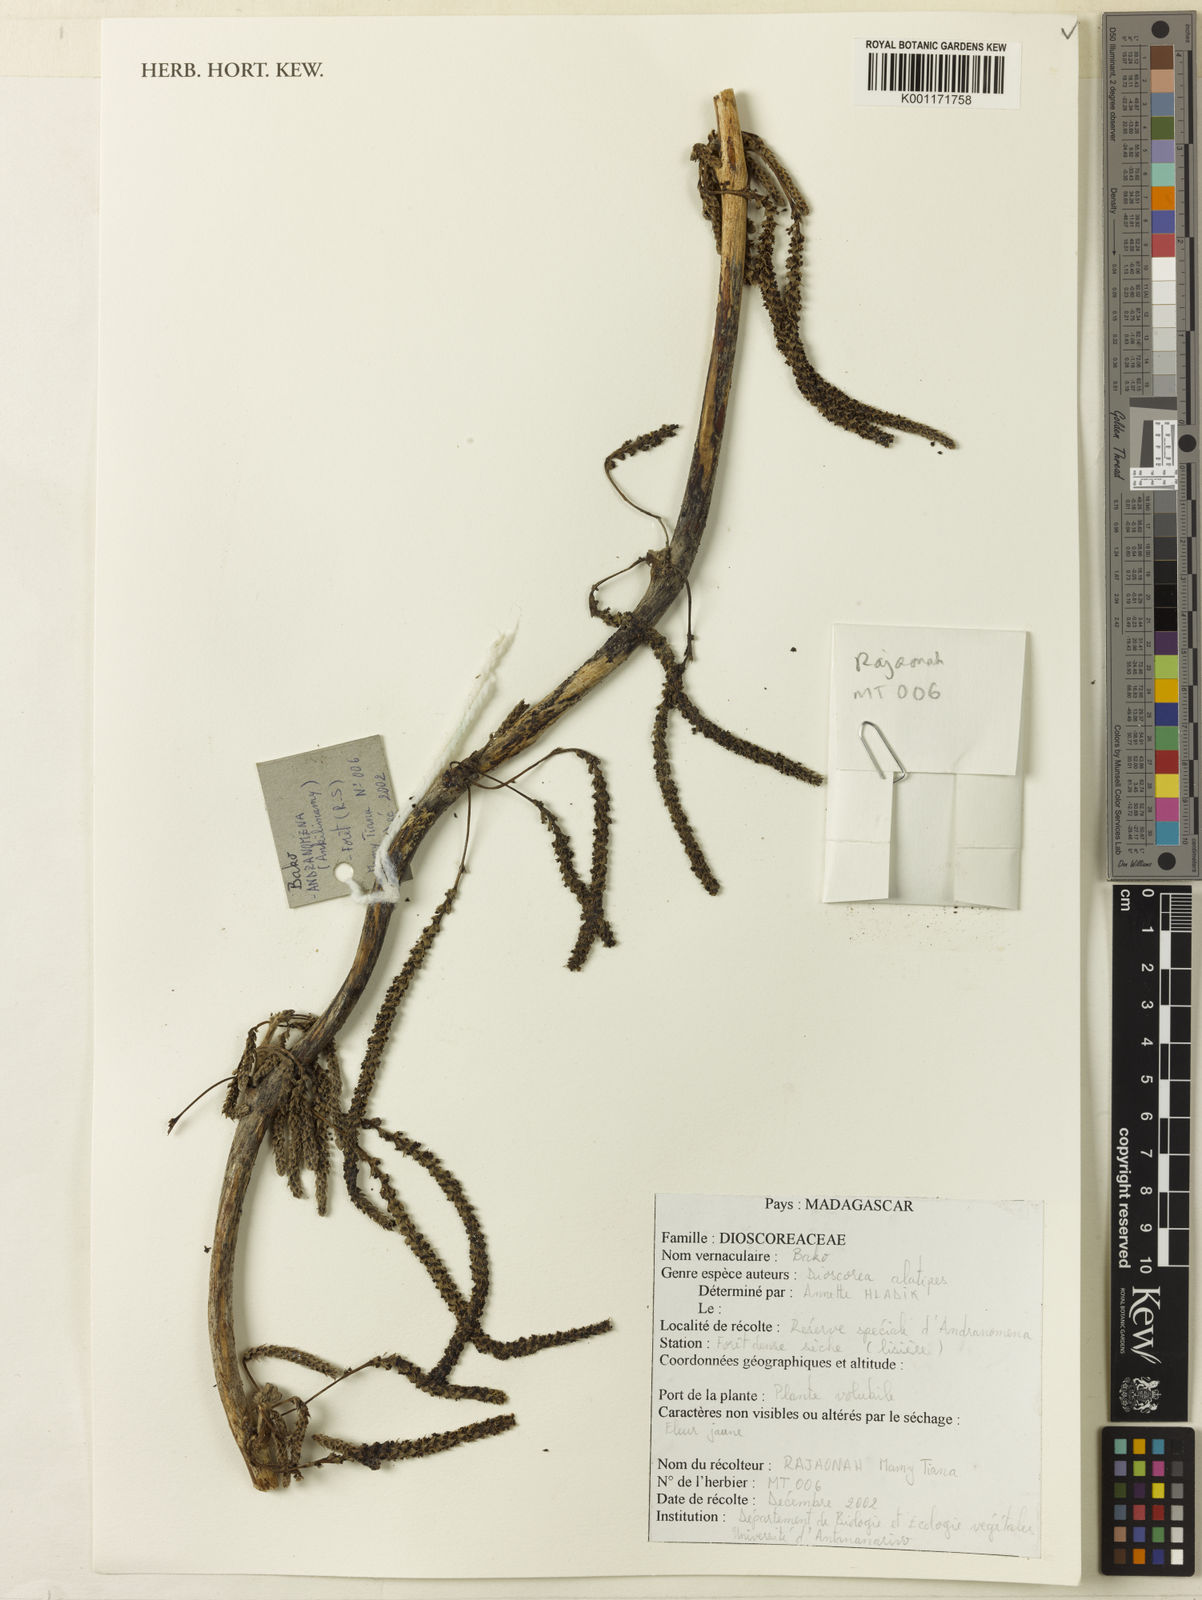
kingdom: Plantae
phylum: Tracheophyta
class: Liliopsida
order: Dioscoreales
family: Dioscoreaceae
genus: Dioscorea
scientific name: Dioscorea alatipes
